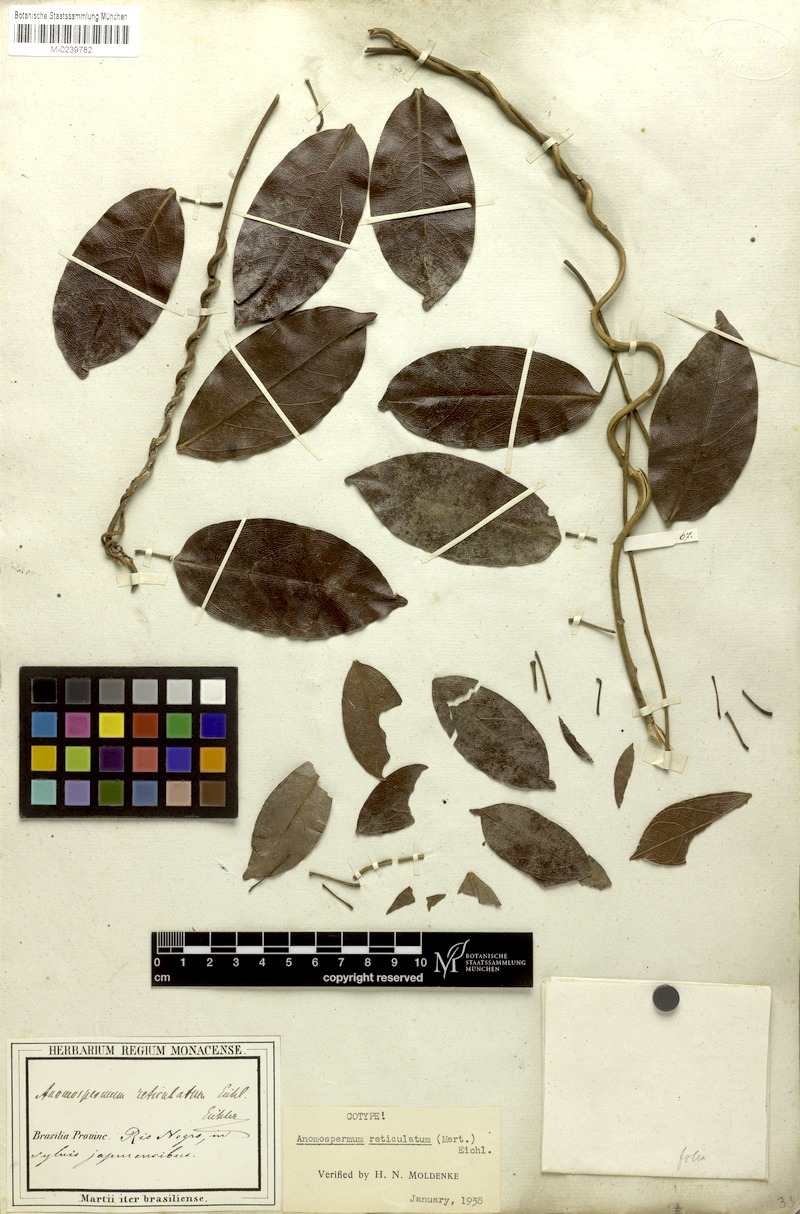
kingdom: Plantae
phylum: Tracheophyta
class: Magnoliopsida
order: Ranunculales
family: Menispermaceae
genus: Anomospermum
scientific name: Anomospermum reticulatum
